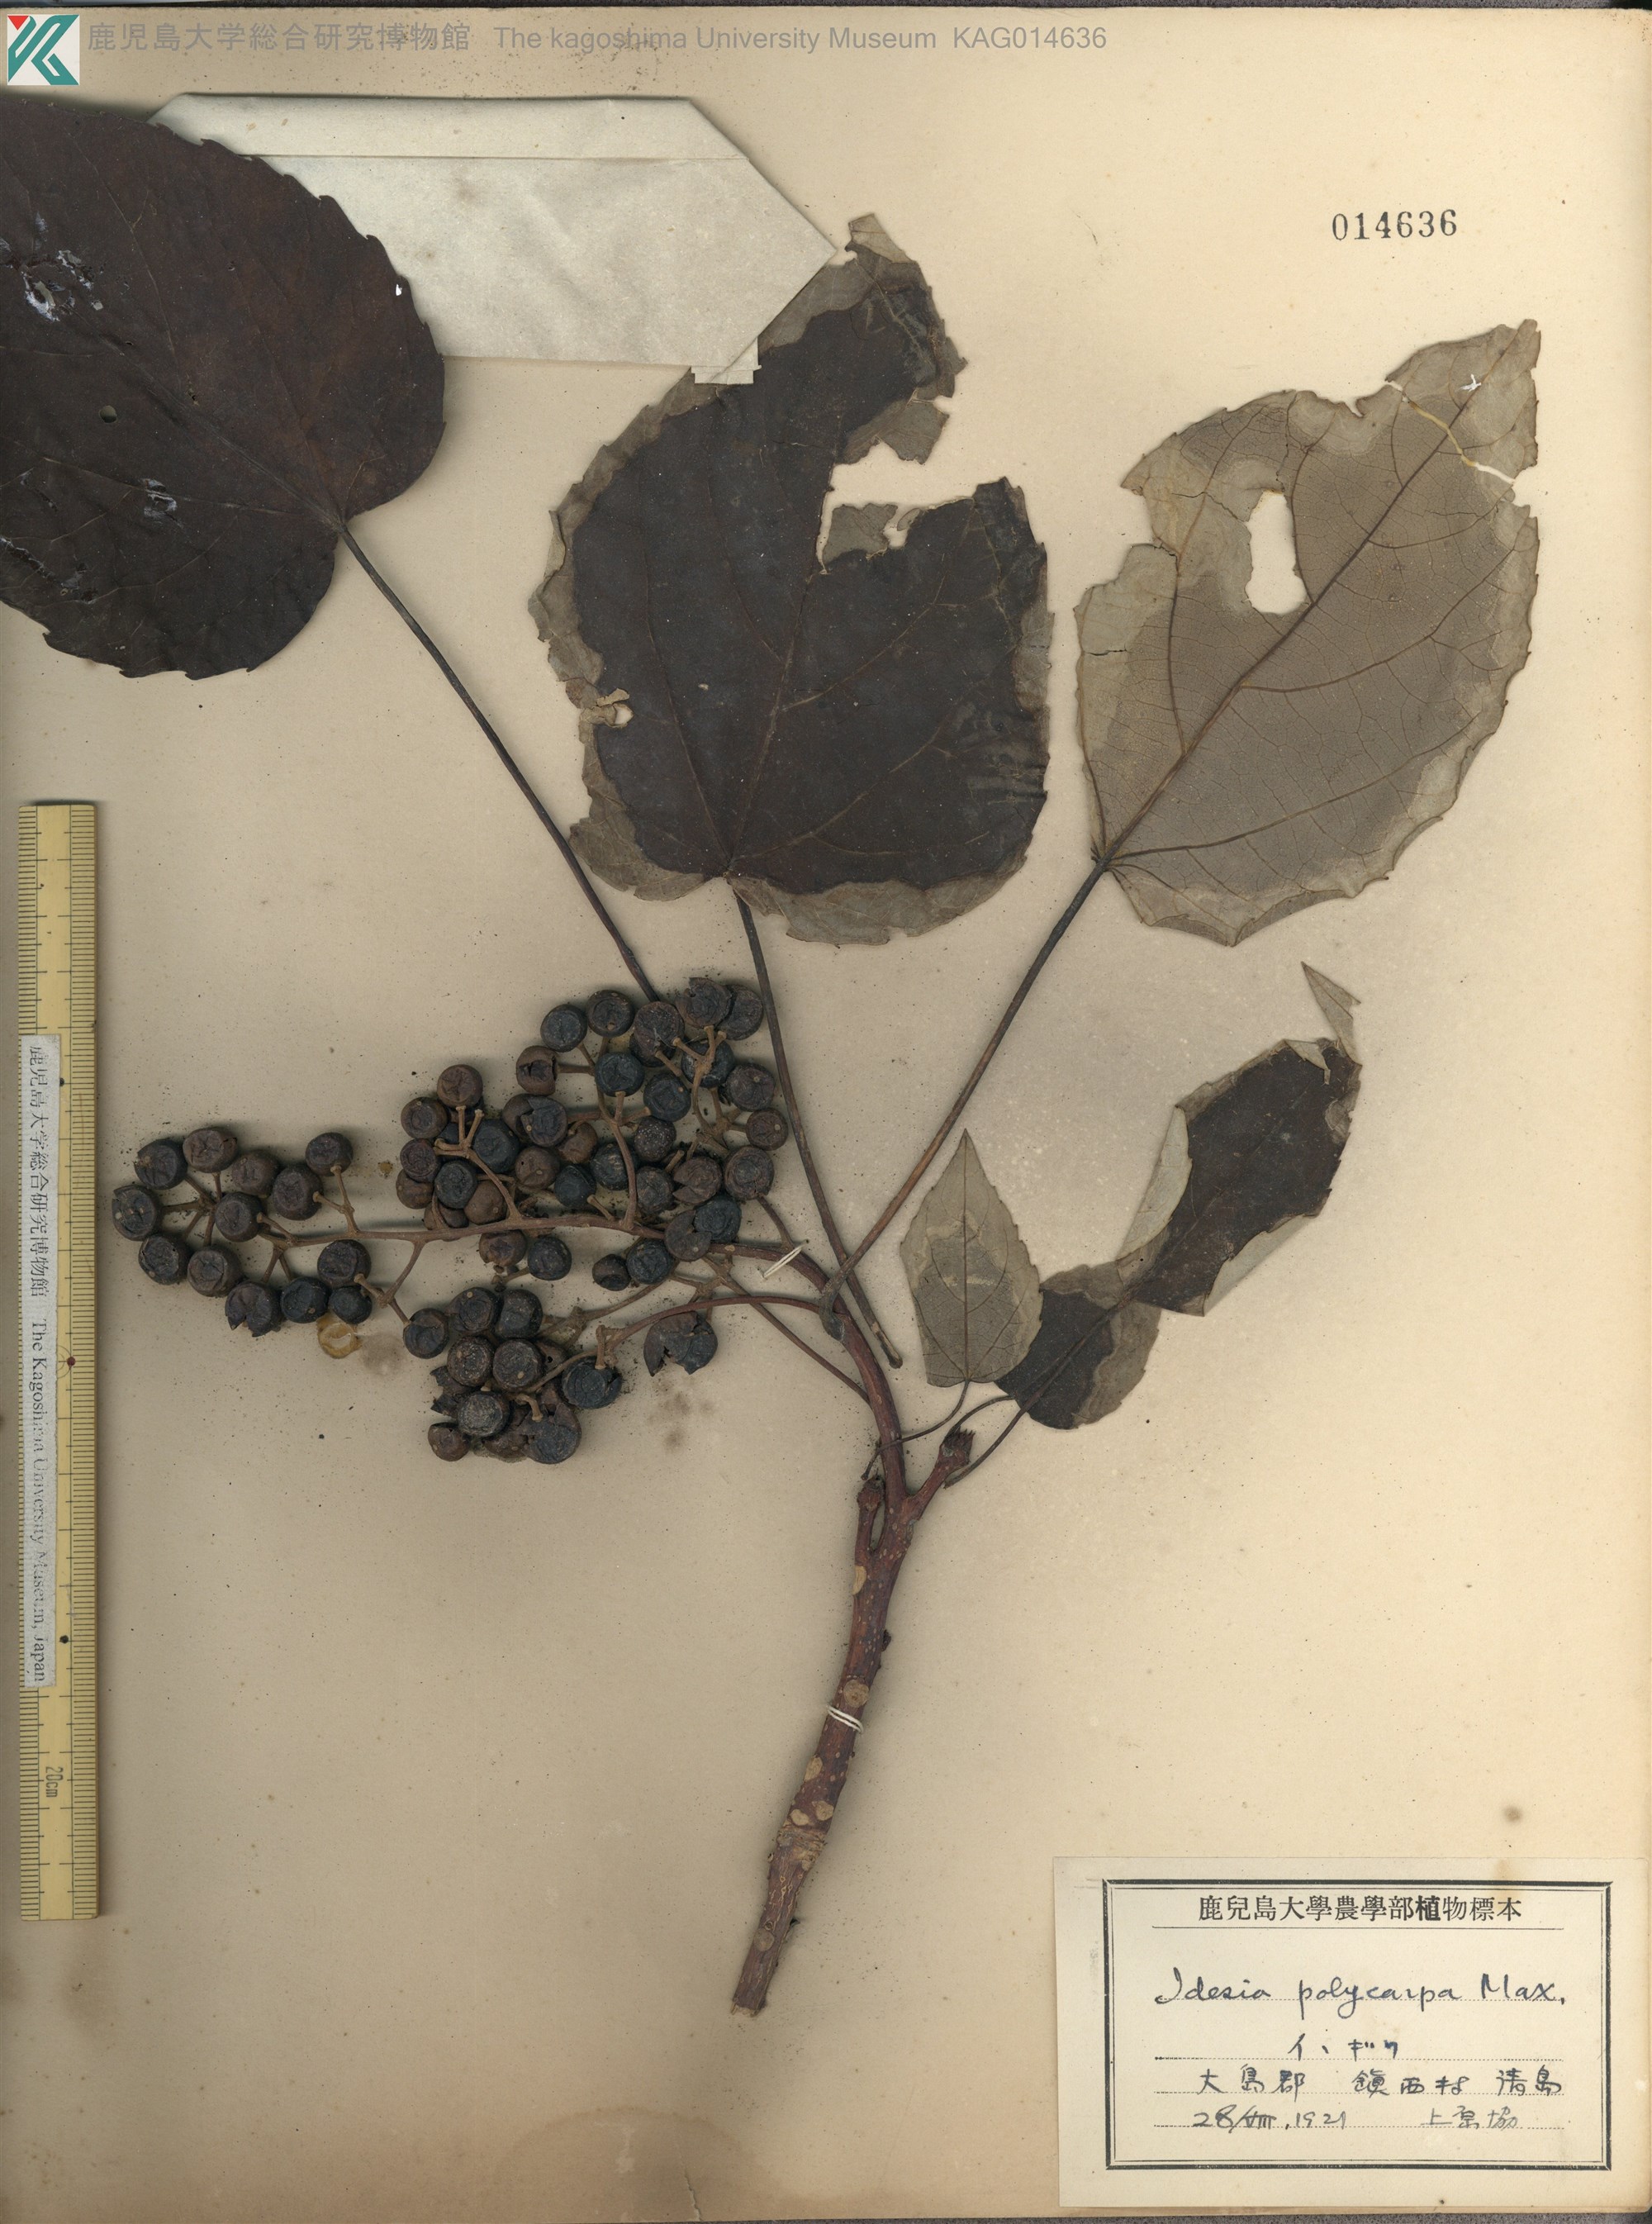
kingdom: Plantae
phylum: Tracheophyta
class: Magnoliopsida
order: Malpighiales
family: Salicaceae
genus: Idesia
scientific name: Idesia polycarpa
